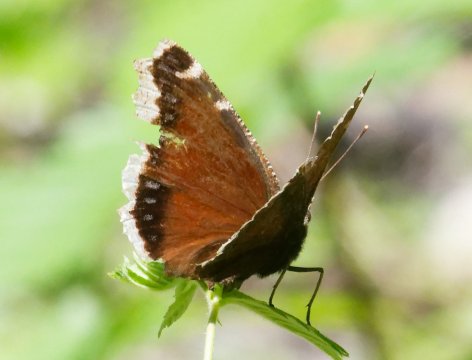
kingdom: Animalia
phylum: Arthropoda
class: Insecta
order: Lepidoptera
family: Nymphalidae
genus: Nymphalis
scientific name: Nymphalis antiopa
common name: Mourning Cloak
